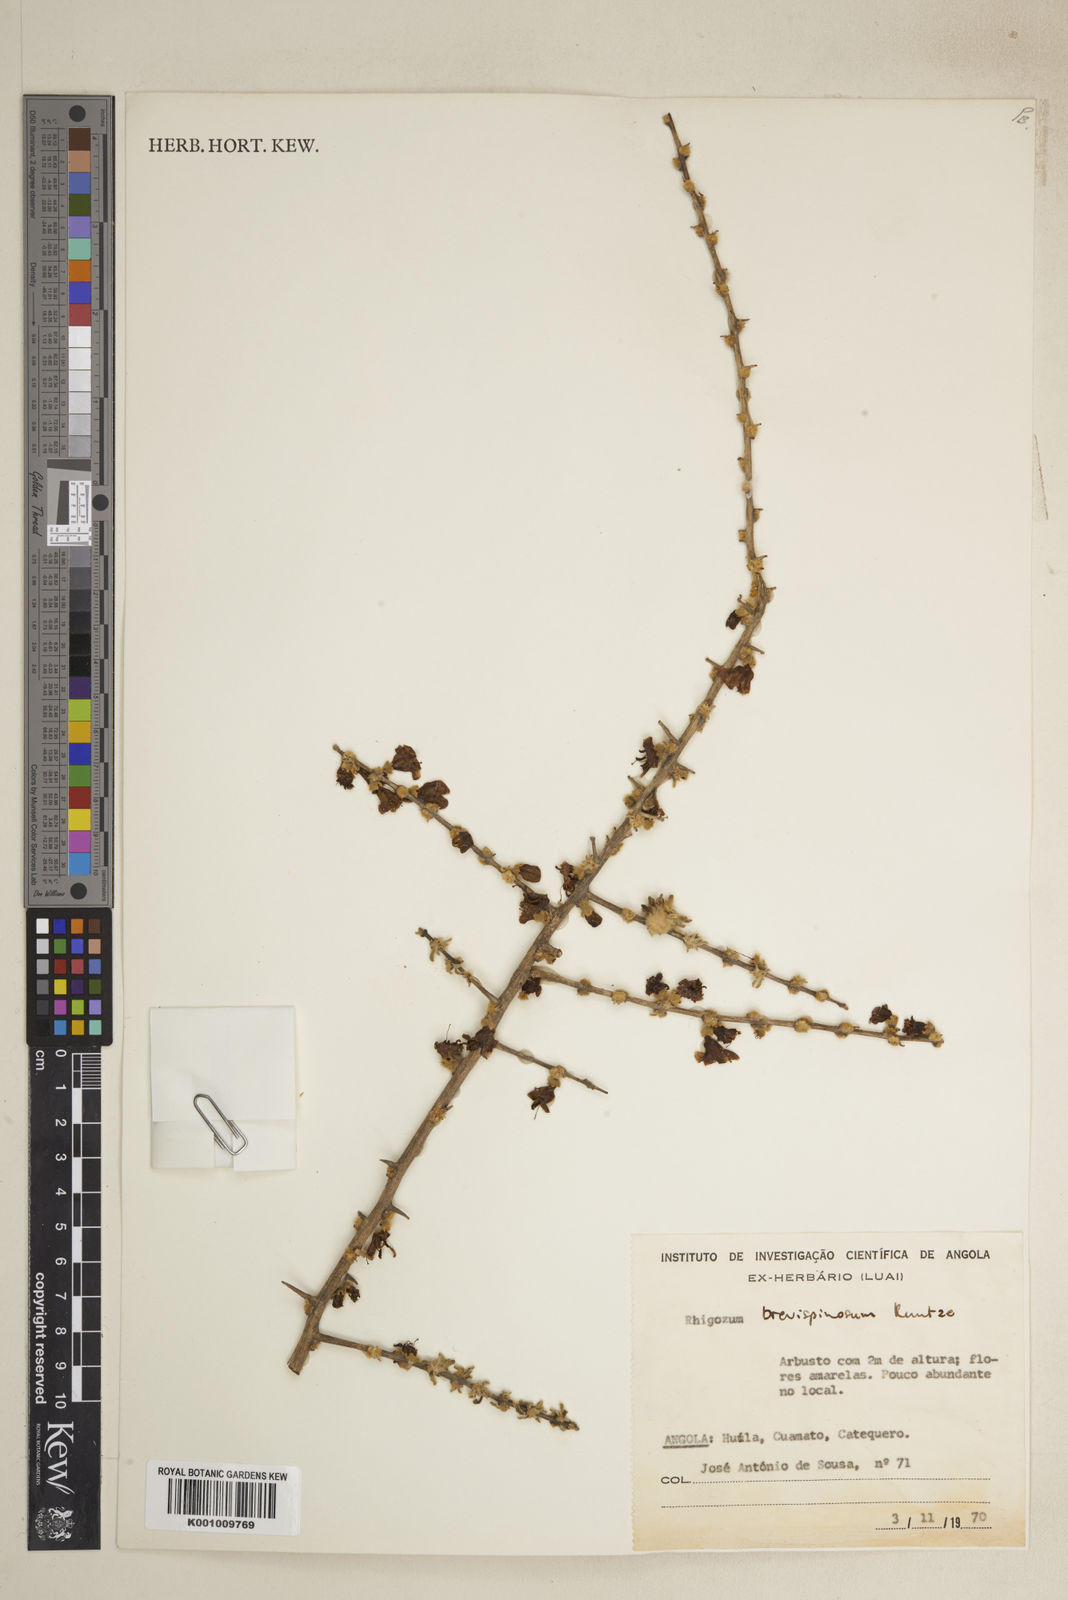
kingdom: Plantae
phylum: Tracheophyta
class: Magnoliopsida
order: Lamiales
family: Bignoniaceae
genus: Rhigozum
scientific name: Rhigozum brevispinosum
